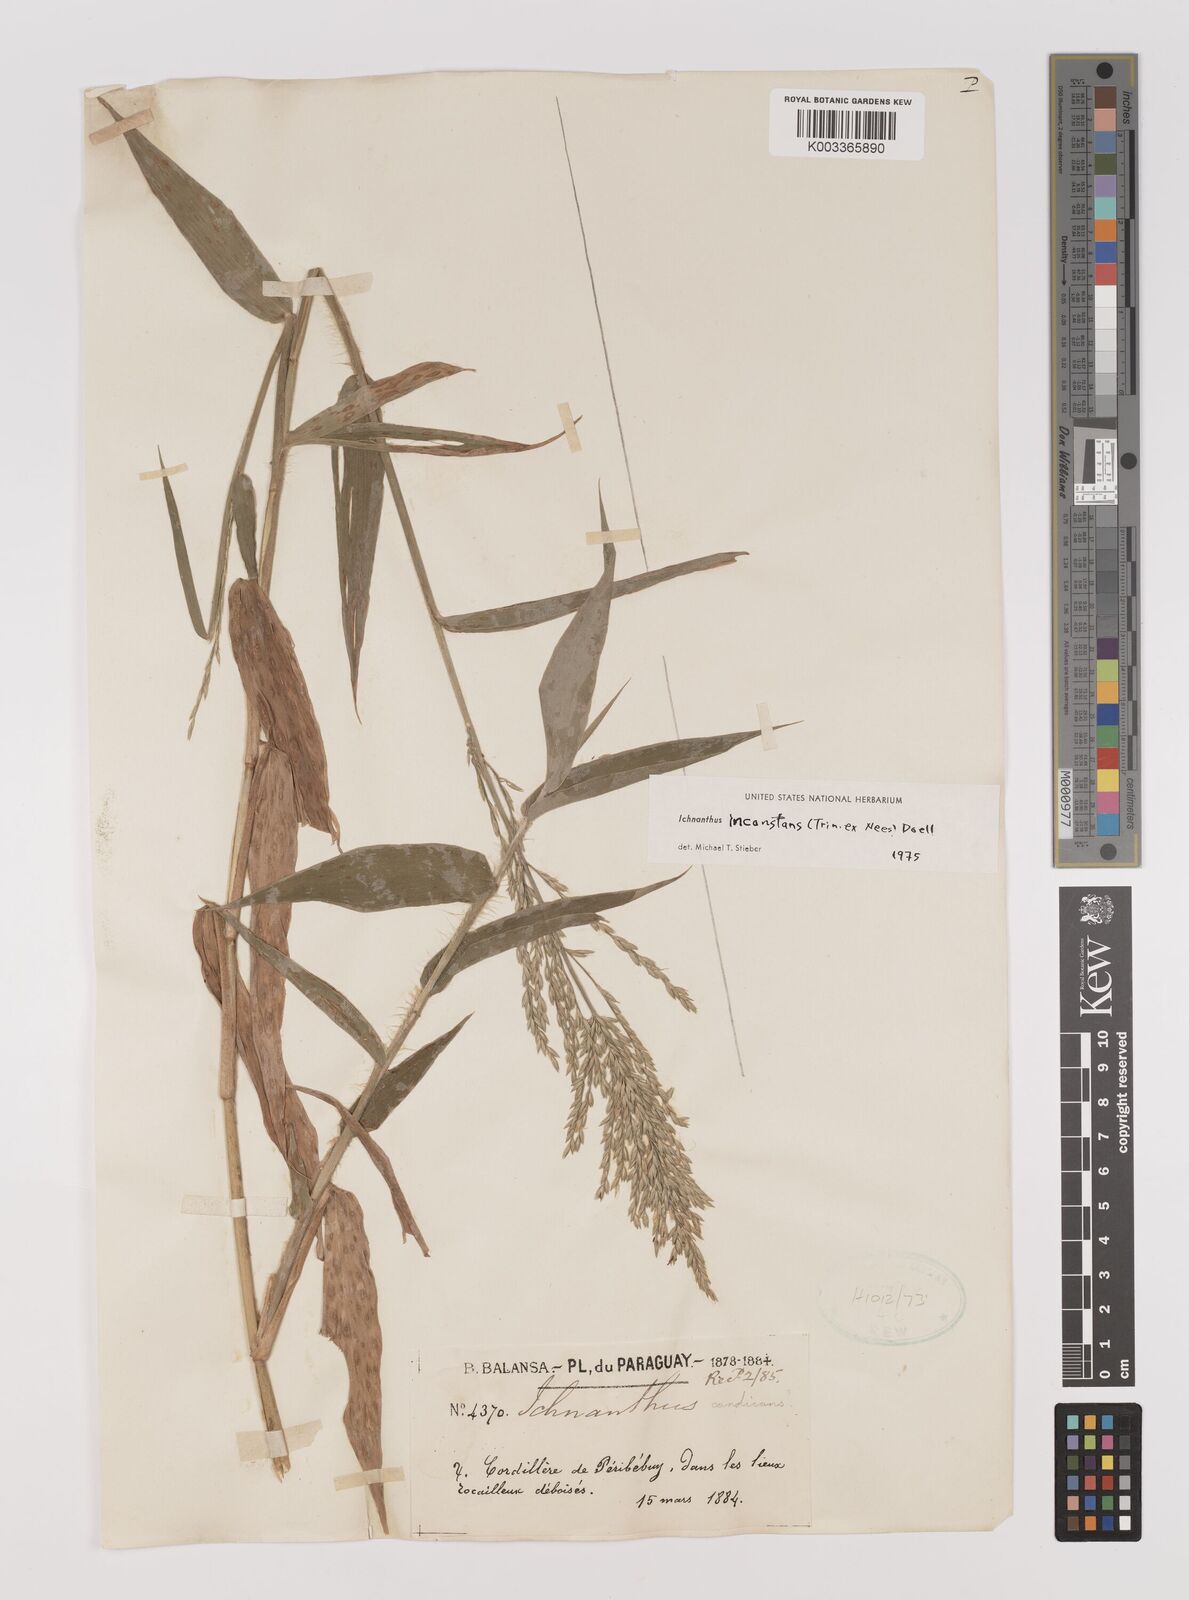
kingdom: Plantae
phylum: Tracheophyta
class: Liliopsida
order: Poales
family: Poaceae
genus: Ichnanthus
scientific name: Ichnanthus inconstans
